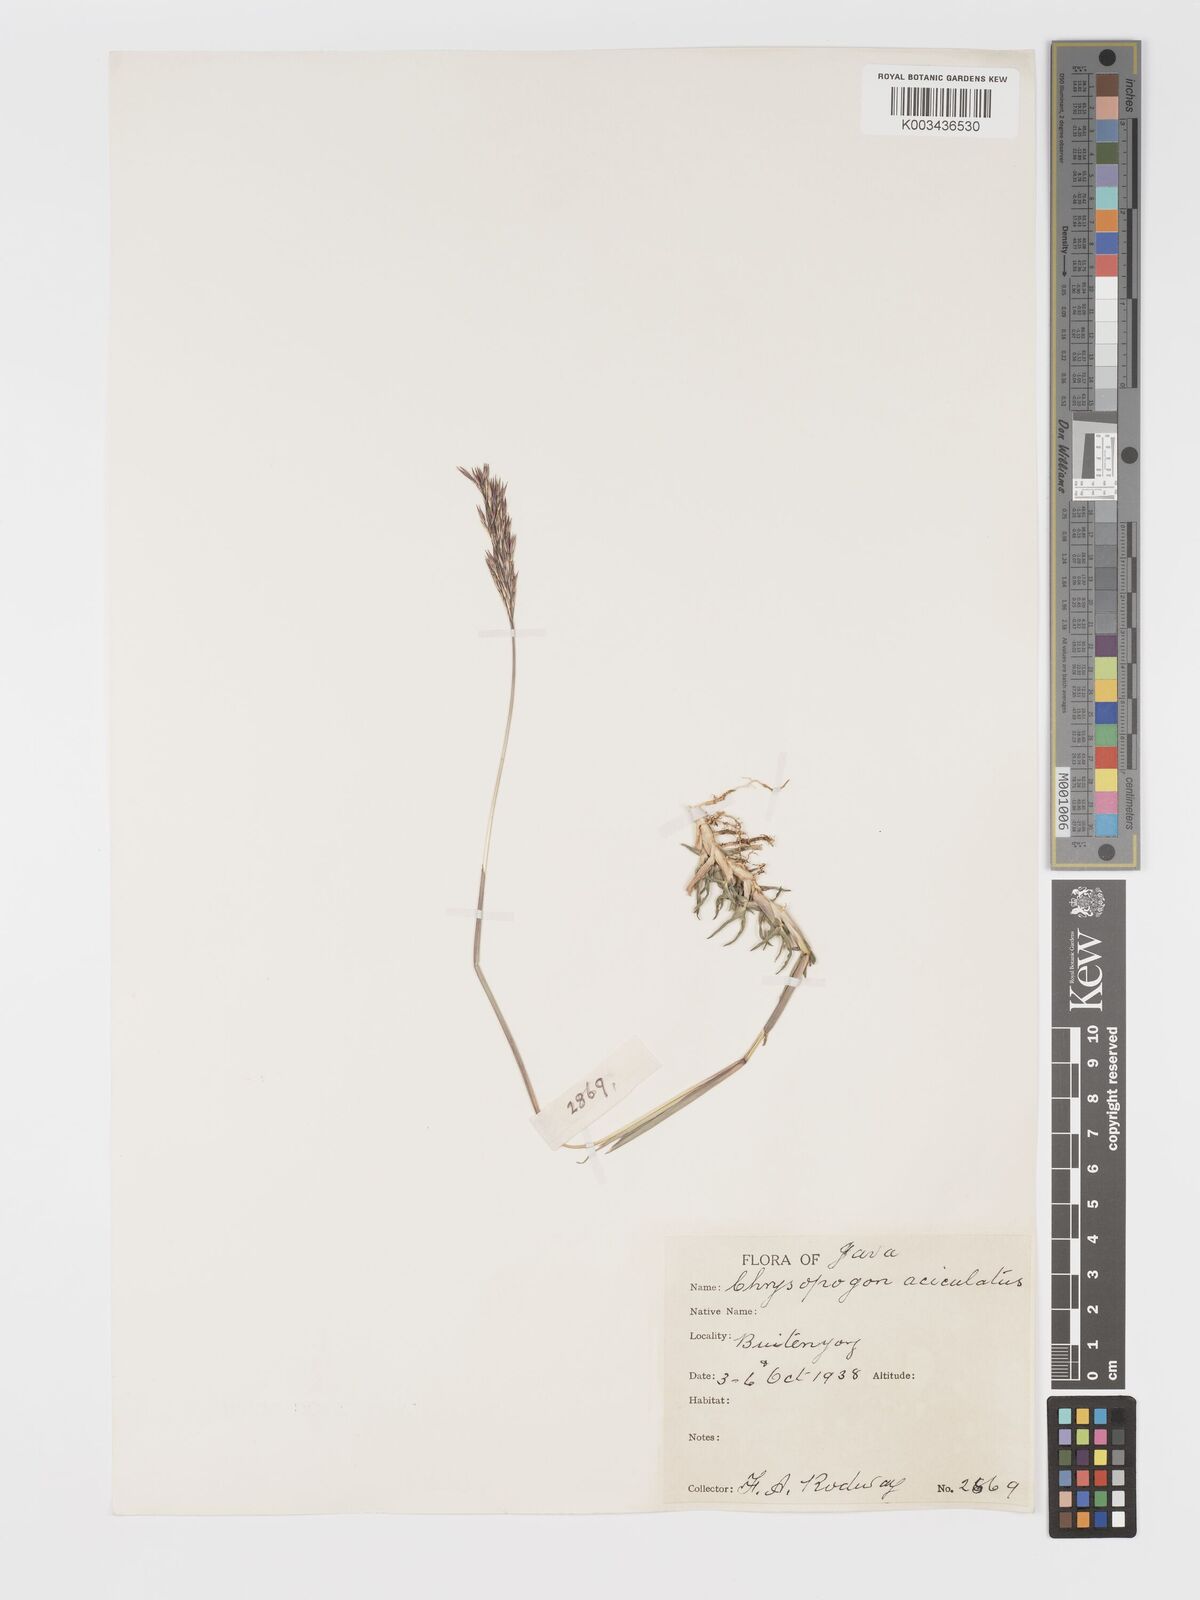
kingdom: Plantae
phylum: Tracheophyta
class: Liliopsida
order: Poales
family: Poaceae
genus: Chrysopogon
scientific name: Chrysopogon aciculatus
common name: Pilipiliula
